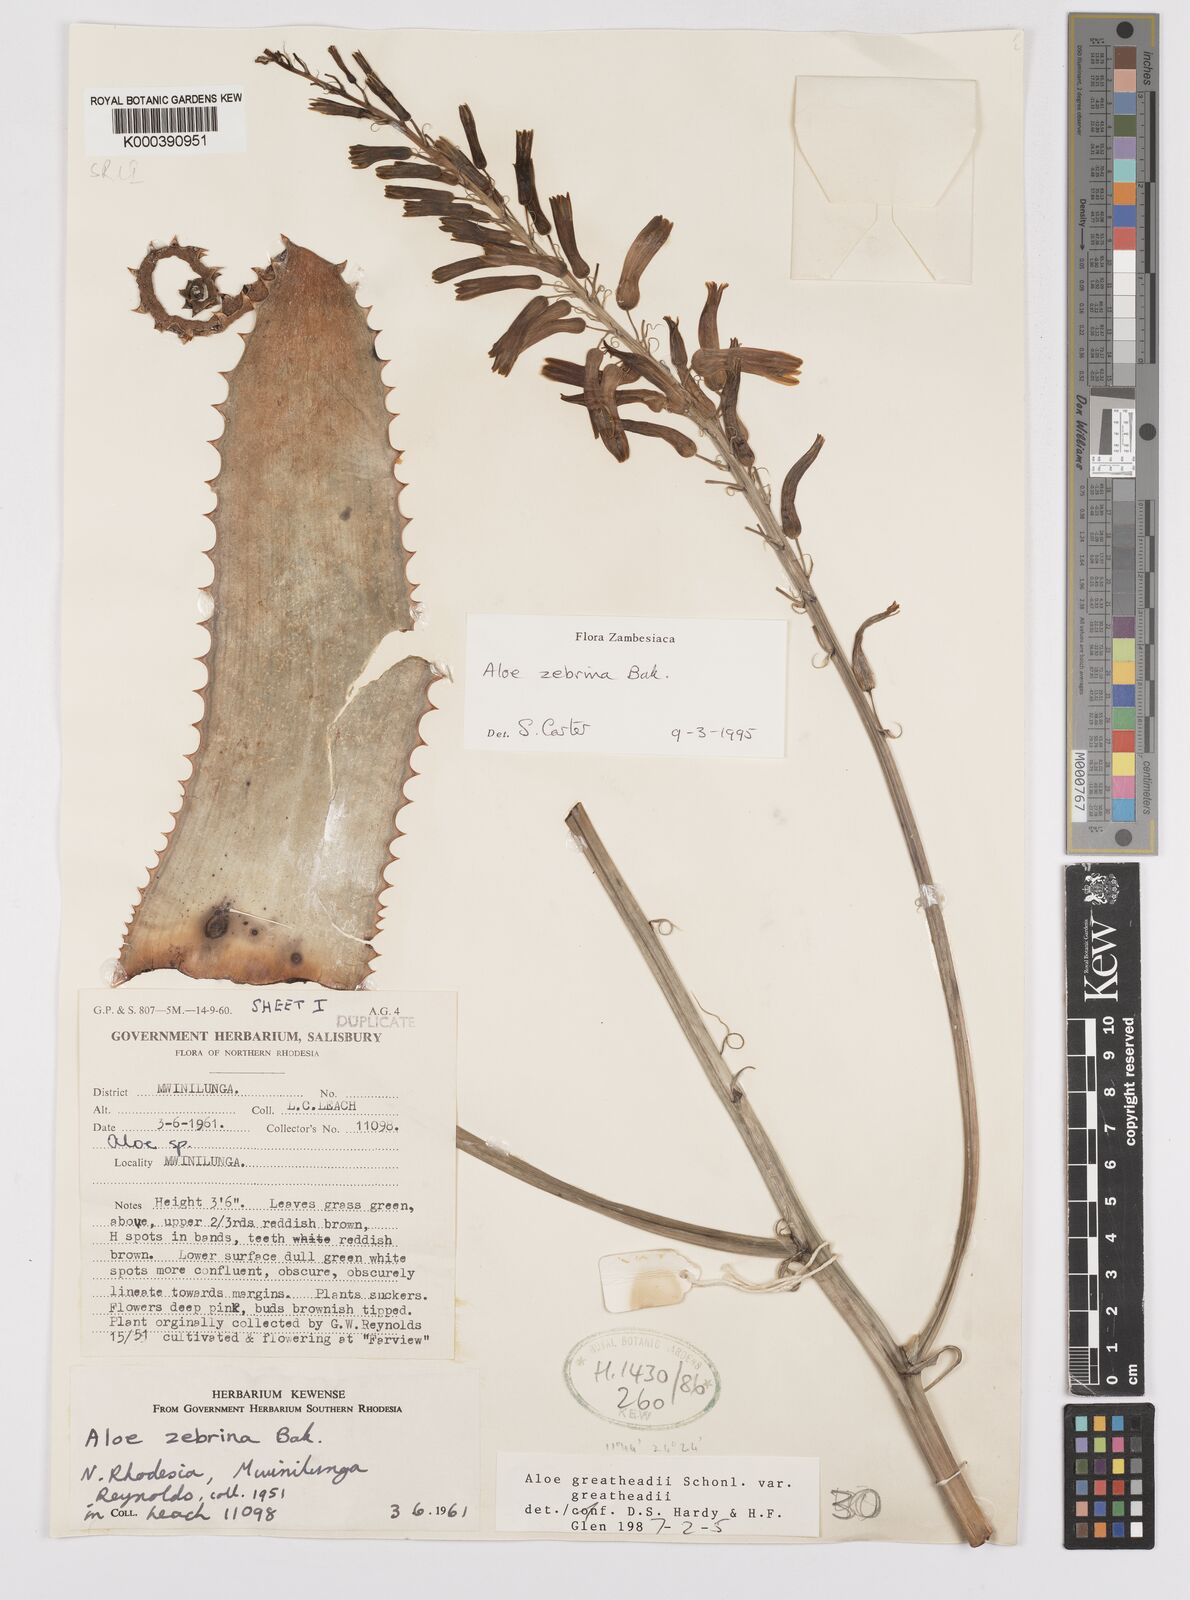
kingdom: Plantae
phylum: Tracheophyta
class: Liliopsida
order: Asparagales
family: Asphodelaceae
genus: Aloe
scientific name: Aloe zebrina
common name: Zebra-leaf aloe
